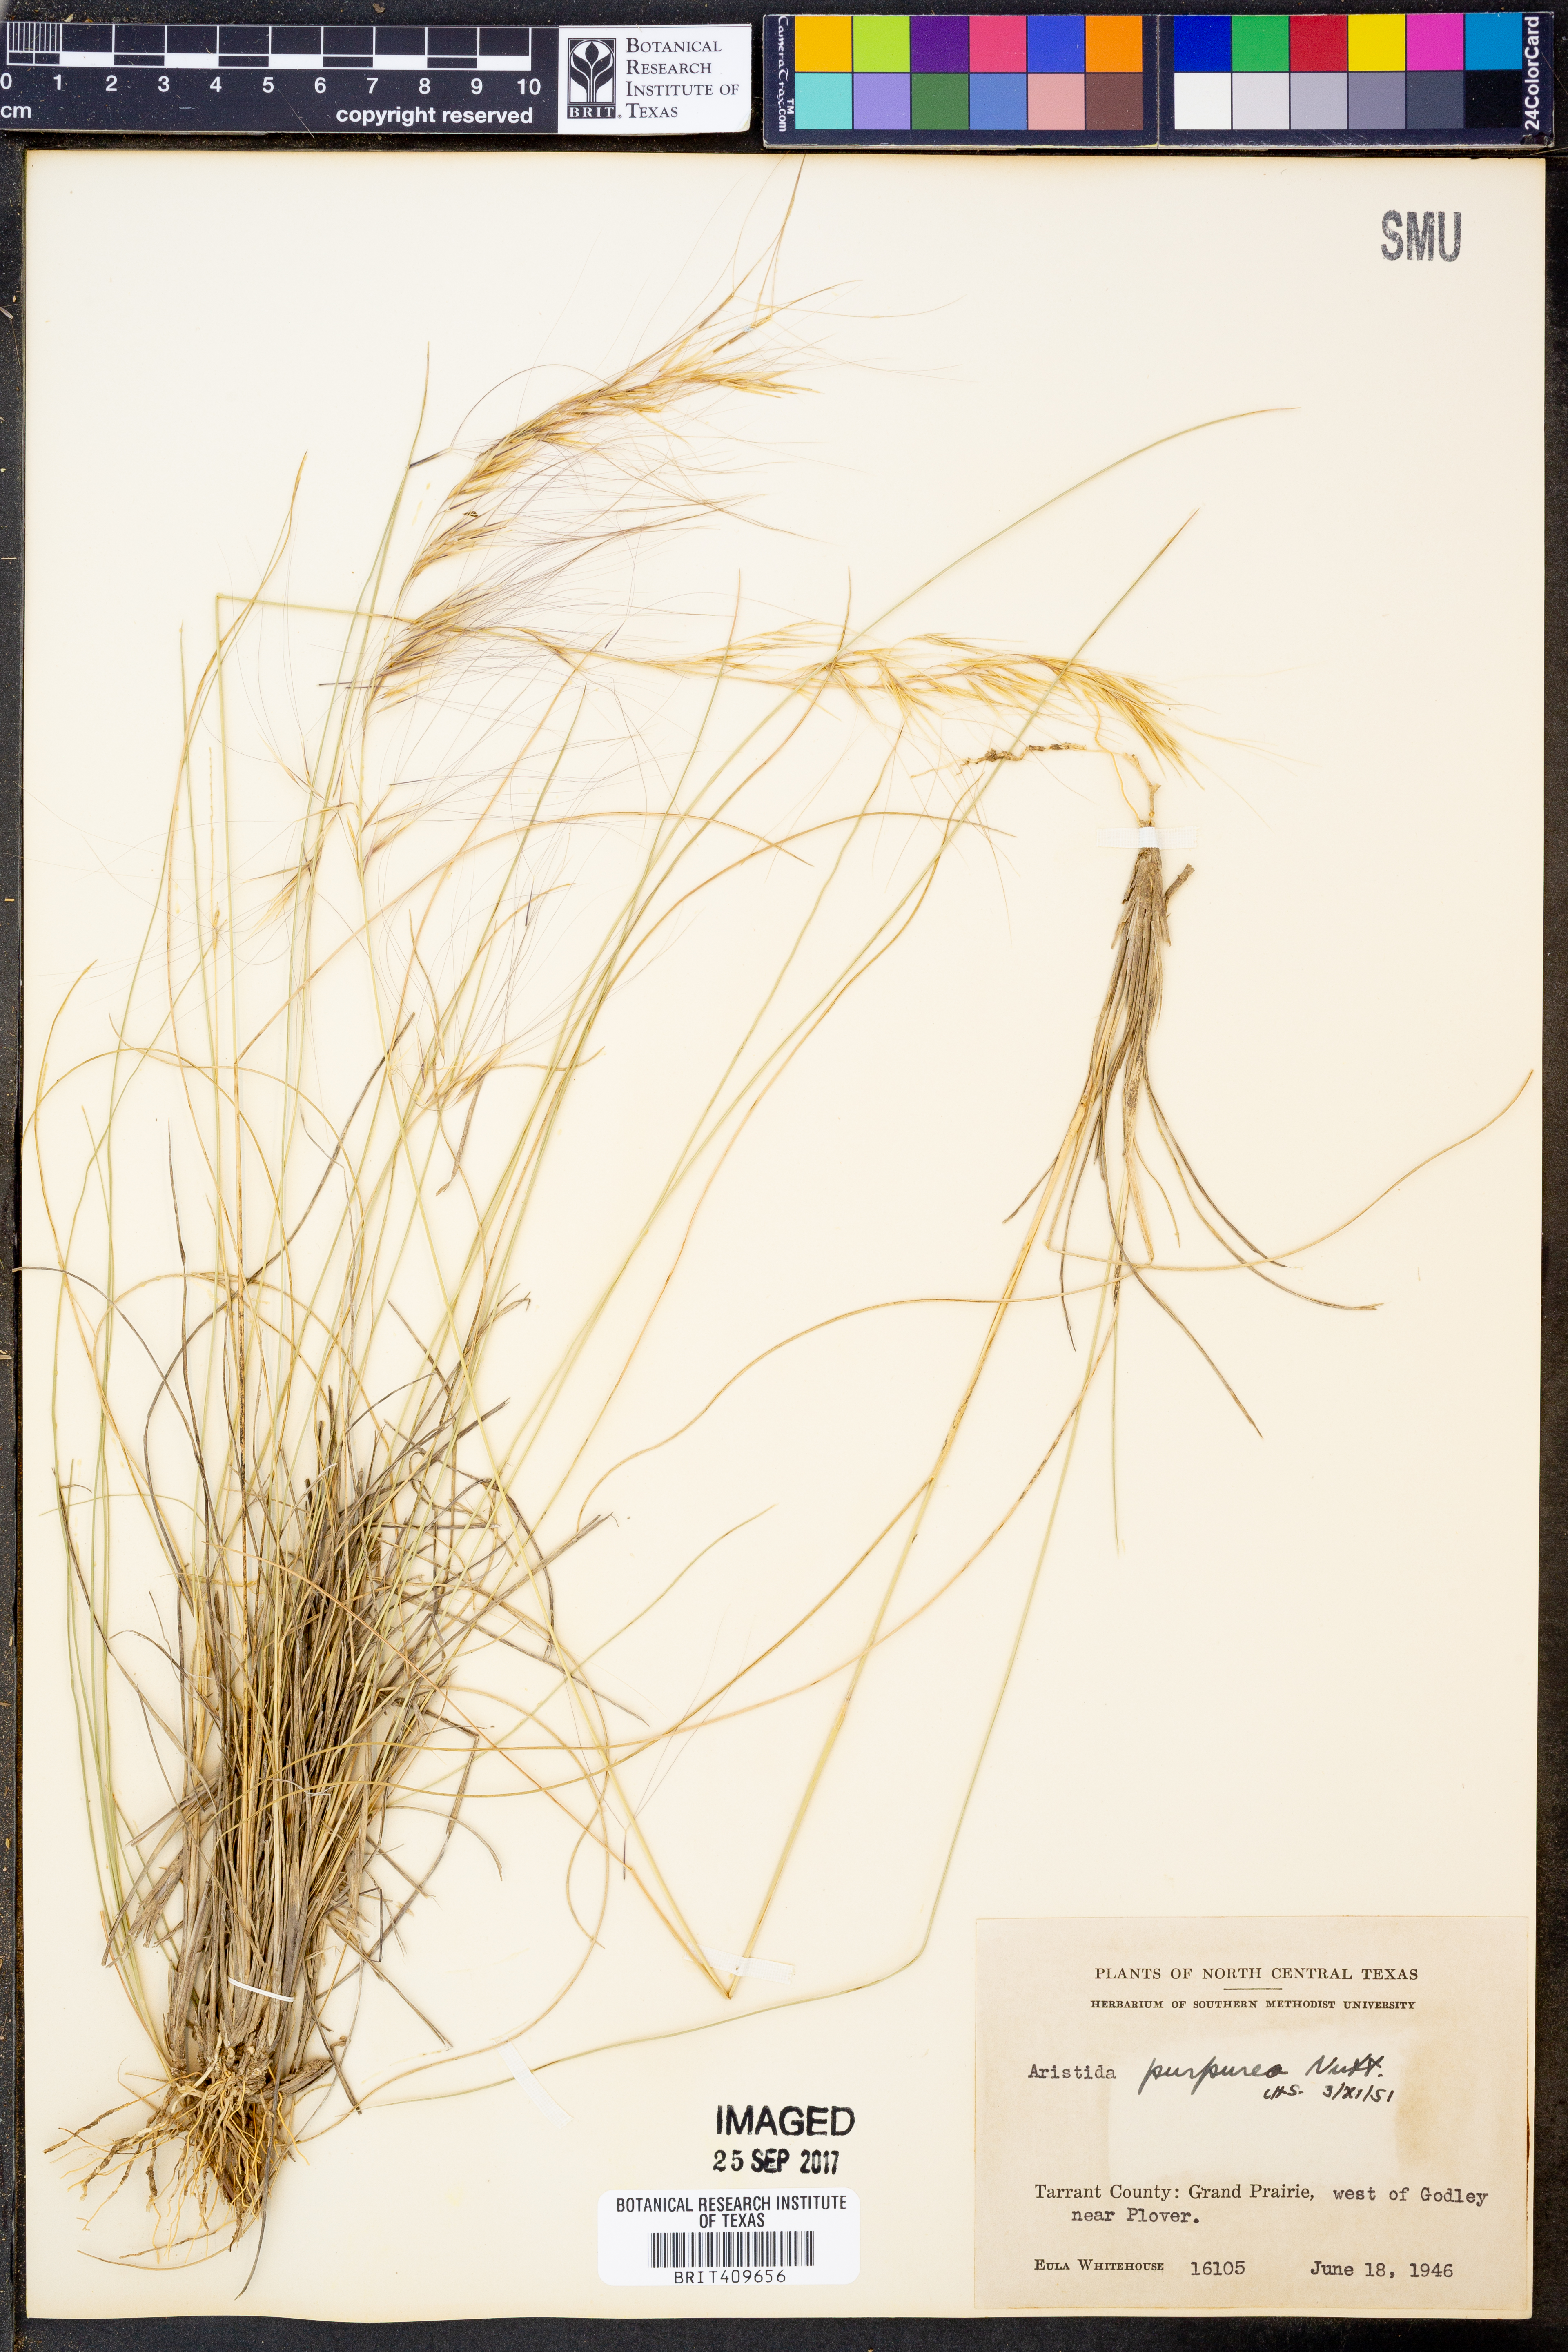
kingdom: Plantae
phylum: Tracheophyta
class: Liliopsida
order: Poales
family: Poaceae
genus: Aristida
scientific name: Aristida purpurea
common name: Purple threeawn
